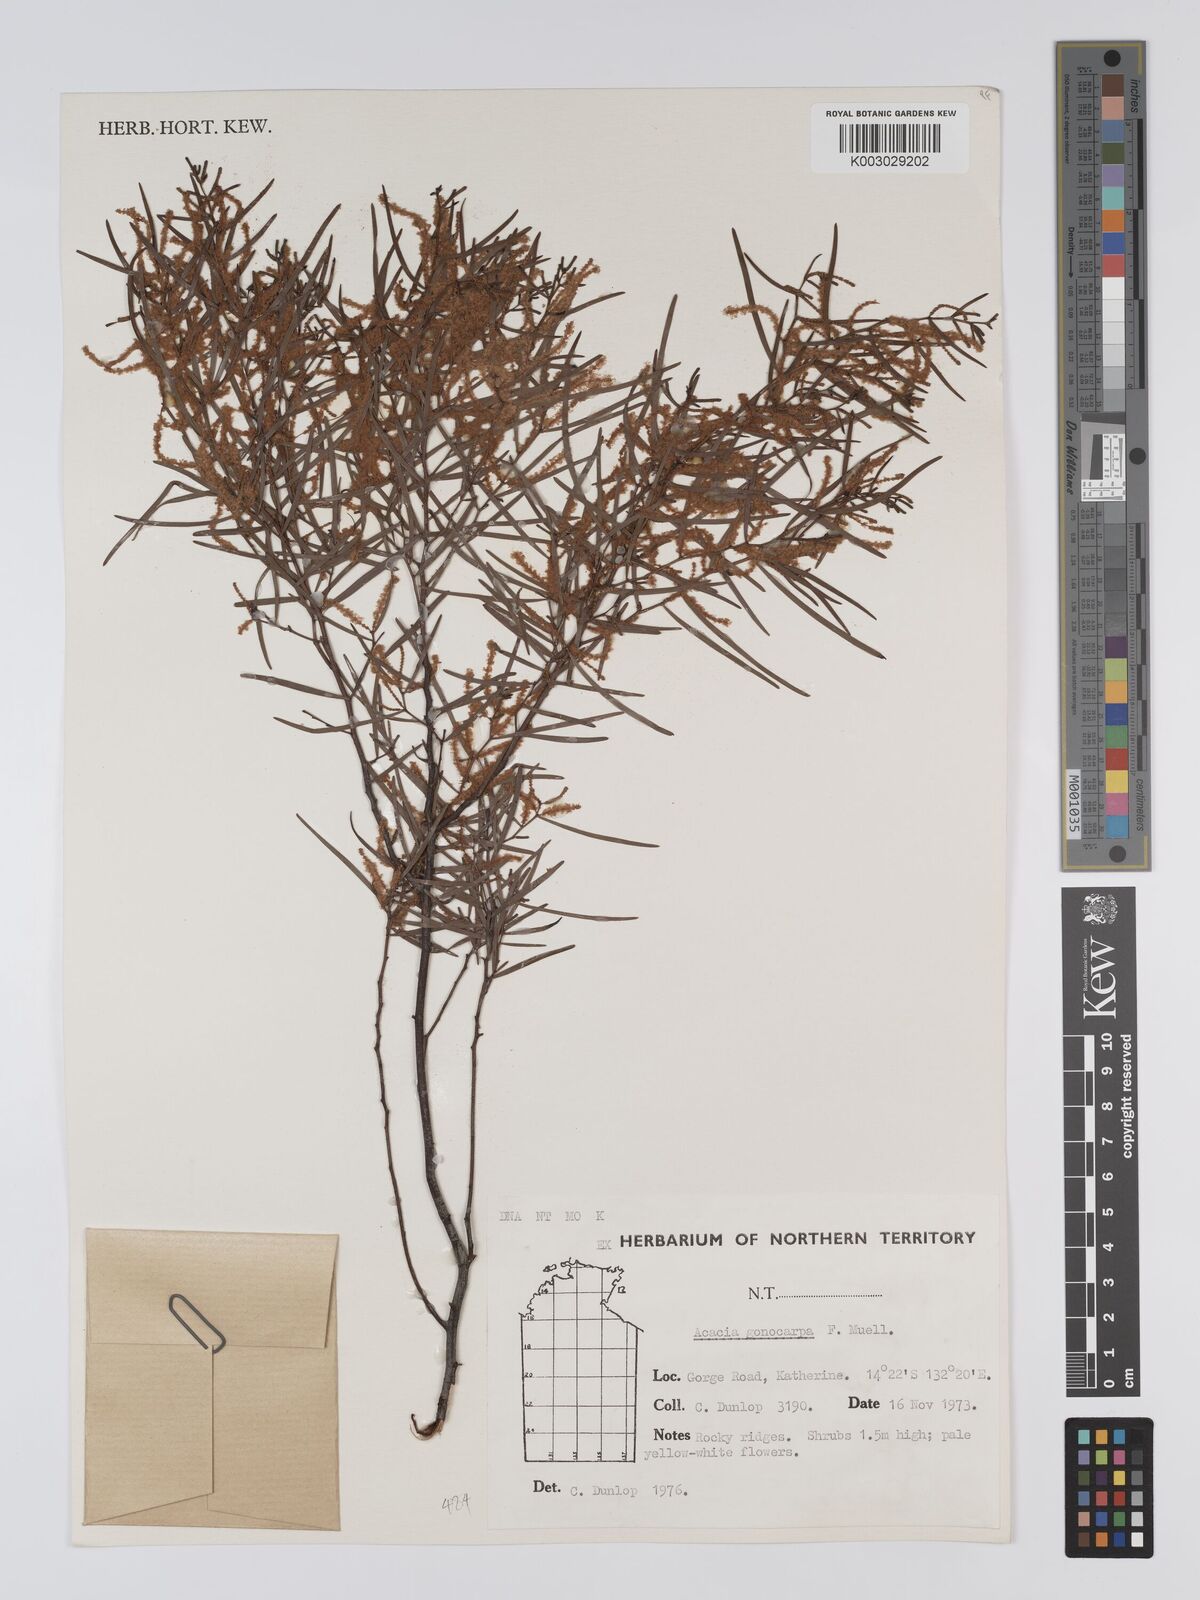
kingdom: Plantae
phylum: Tracheophyta
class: Magnoliopsida
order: Fabales
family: Fabaceae
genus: Acacia
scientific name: Acacia gonocarpa
